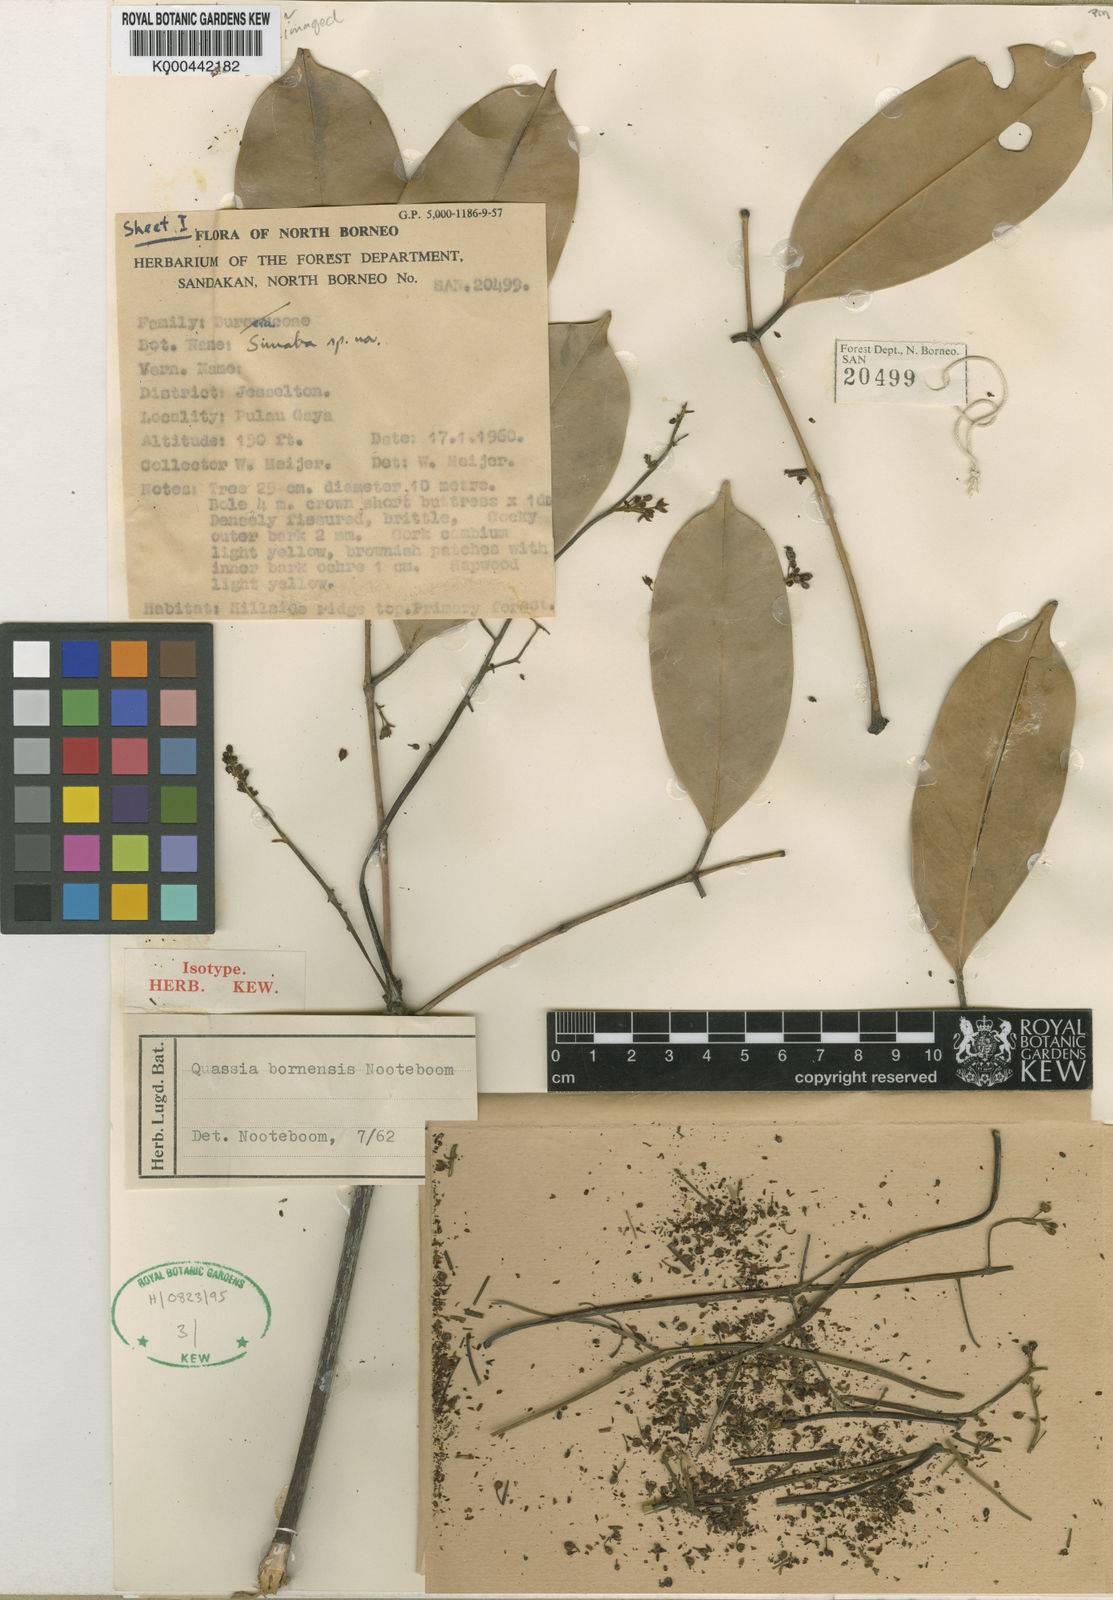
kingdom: Plantae
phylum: Tracheophyta
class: Magnoliopsida
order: Sapindales
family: Simaroubaceae
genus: Simaba
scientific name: Simaba borneensis
